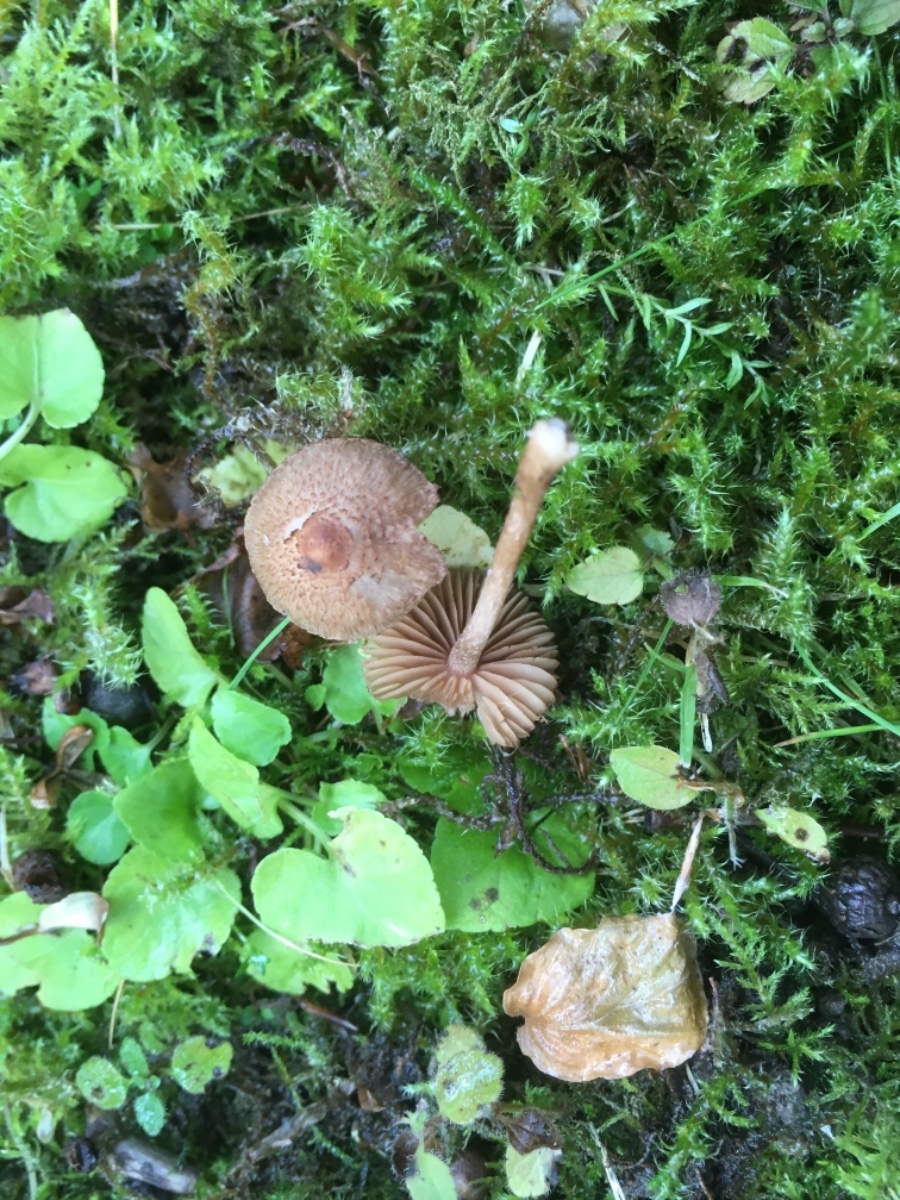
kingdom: Fungi
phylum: Basidiomycota
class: Agaricomycetes
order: Agaricales
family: Inocybaceae
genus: Inocybe
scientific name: Inocybe
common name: trævlhat
